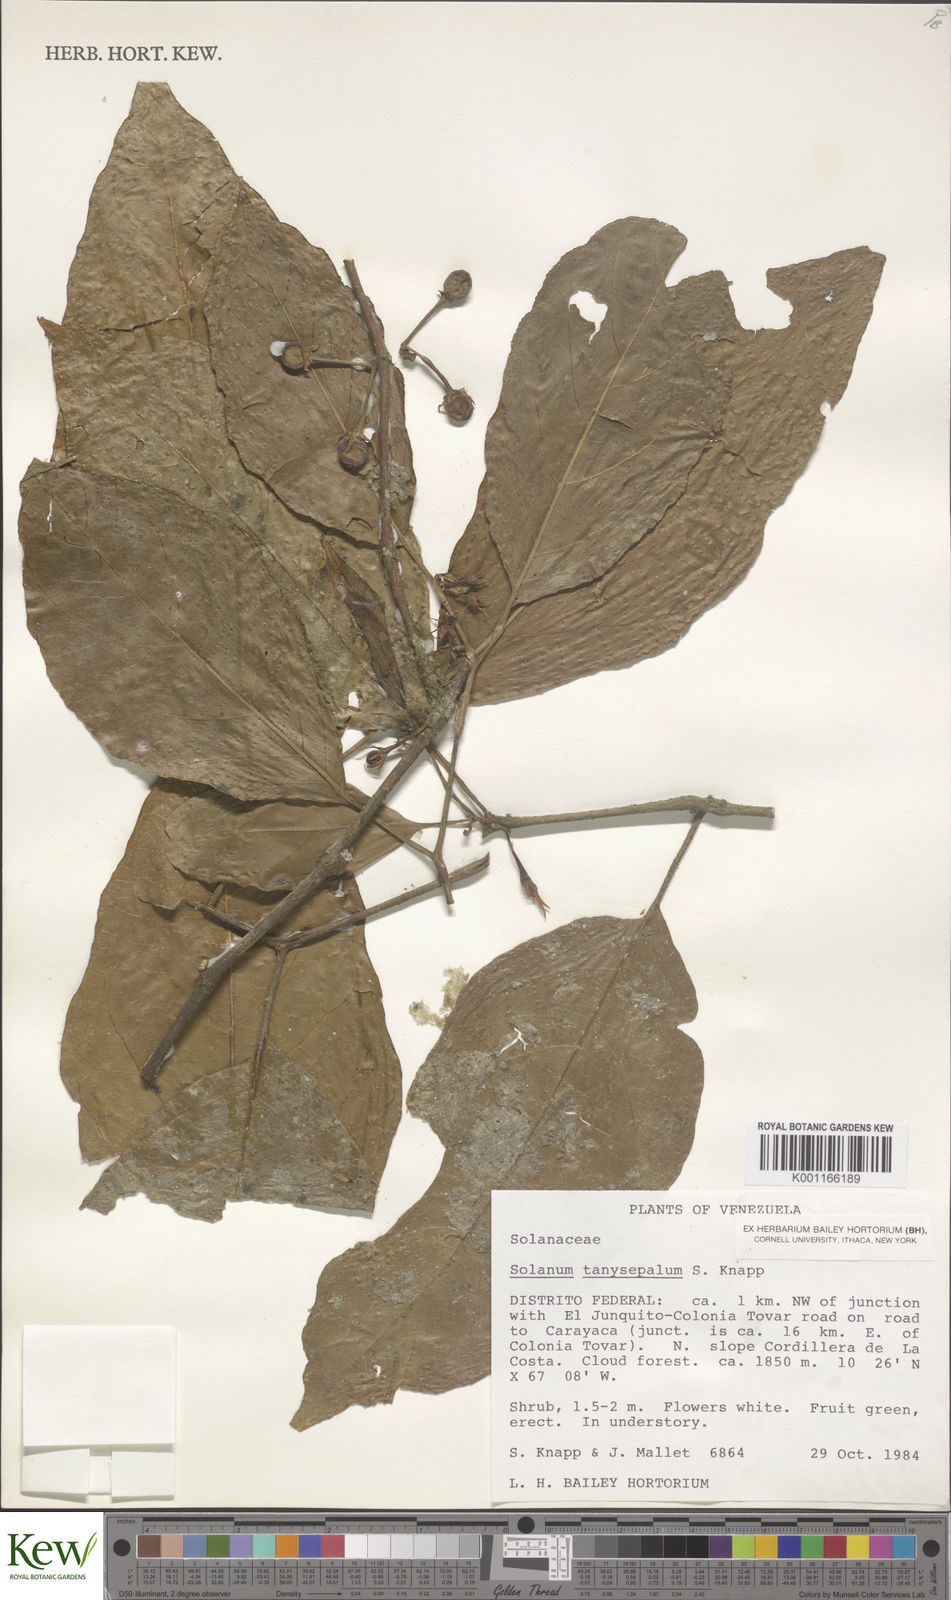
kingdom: Plantae
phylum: Tracheophyta
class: Magnoliopsida
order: Solanales
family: Solanaceae
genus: Solanum
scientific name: Solanum tanysepalum
